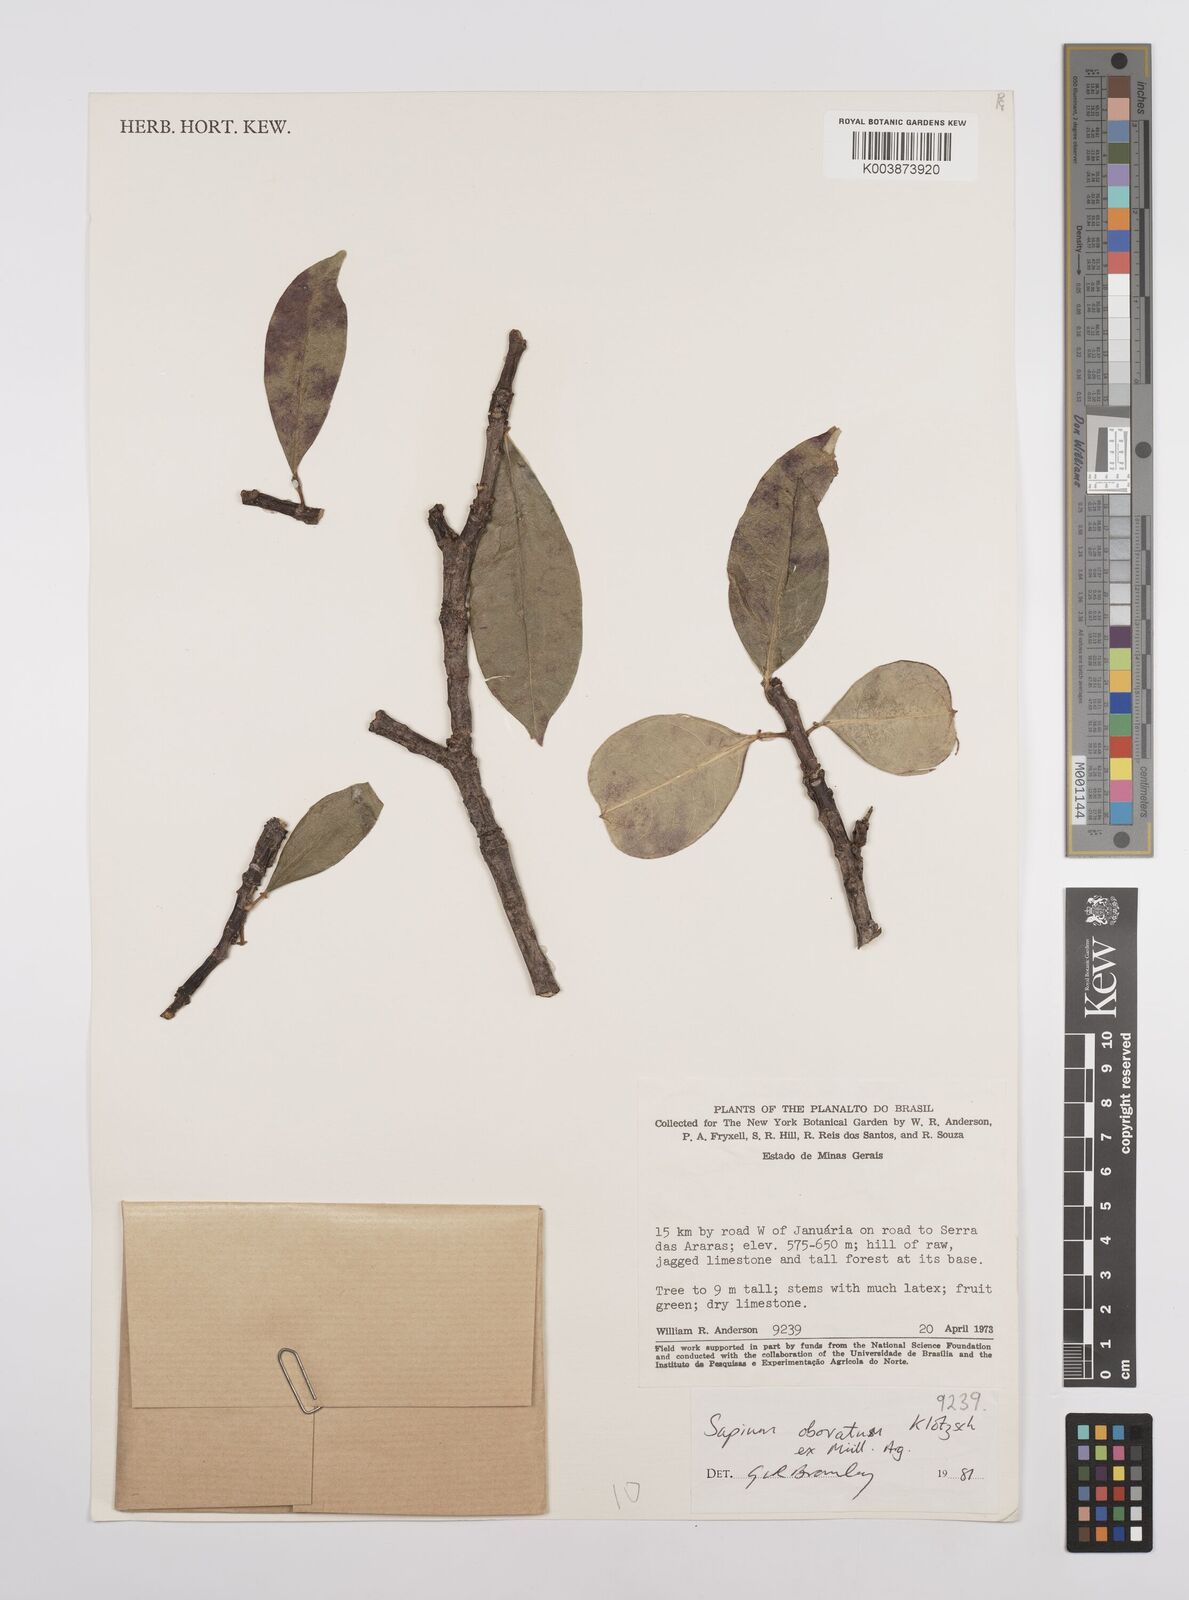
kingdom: Plantae
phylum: Tracheophyta
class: Magnoliopsida
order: Malpighiales
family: Euphorbiaceae
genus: Sapium
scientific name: Sapium obovatum
